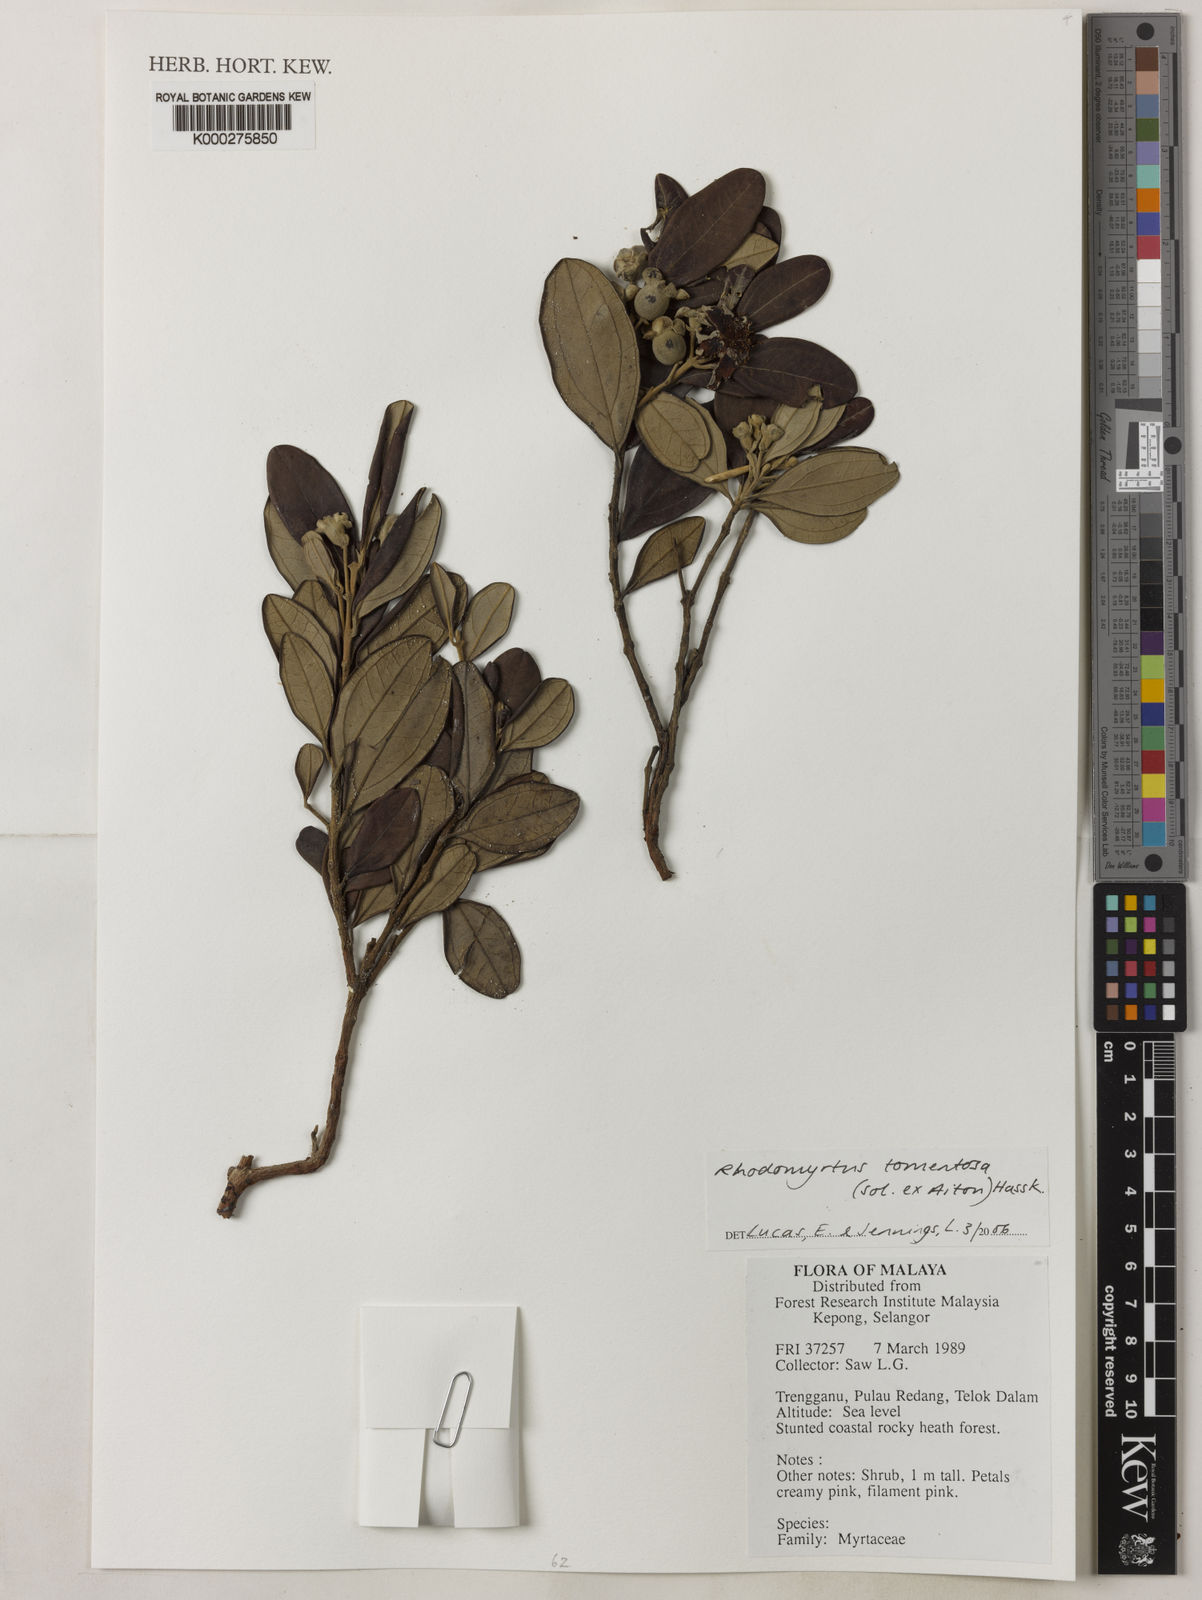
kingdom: Plantae
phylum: Tracheophyta
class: Magnoliopsida
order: Myrtales
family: Myrtaceae
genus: Rhodomyrtus
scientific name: Rhodomyrtus tomentosa
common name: Rose myrtle
